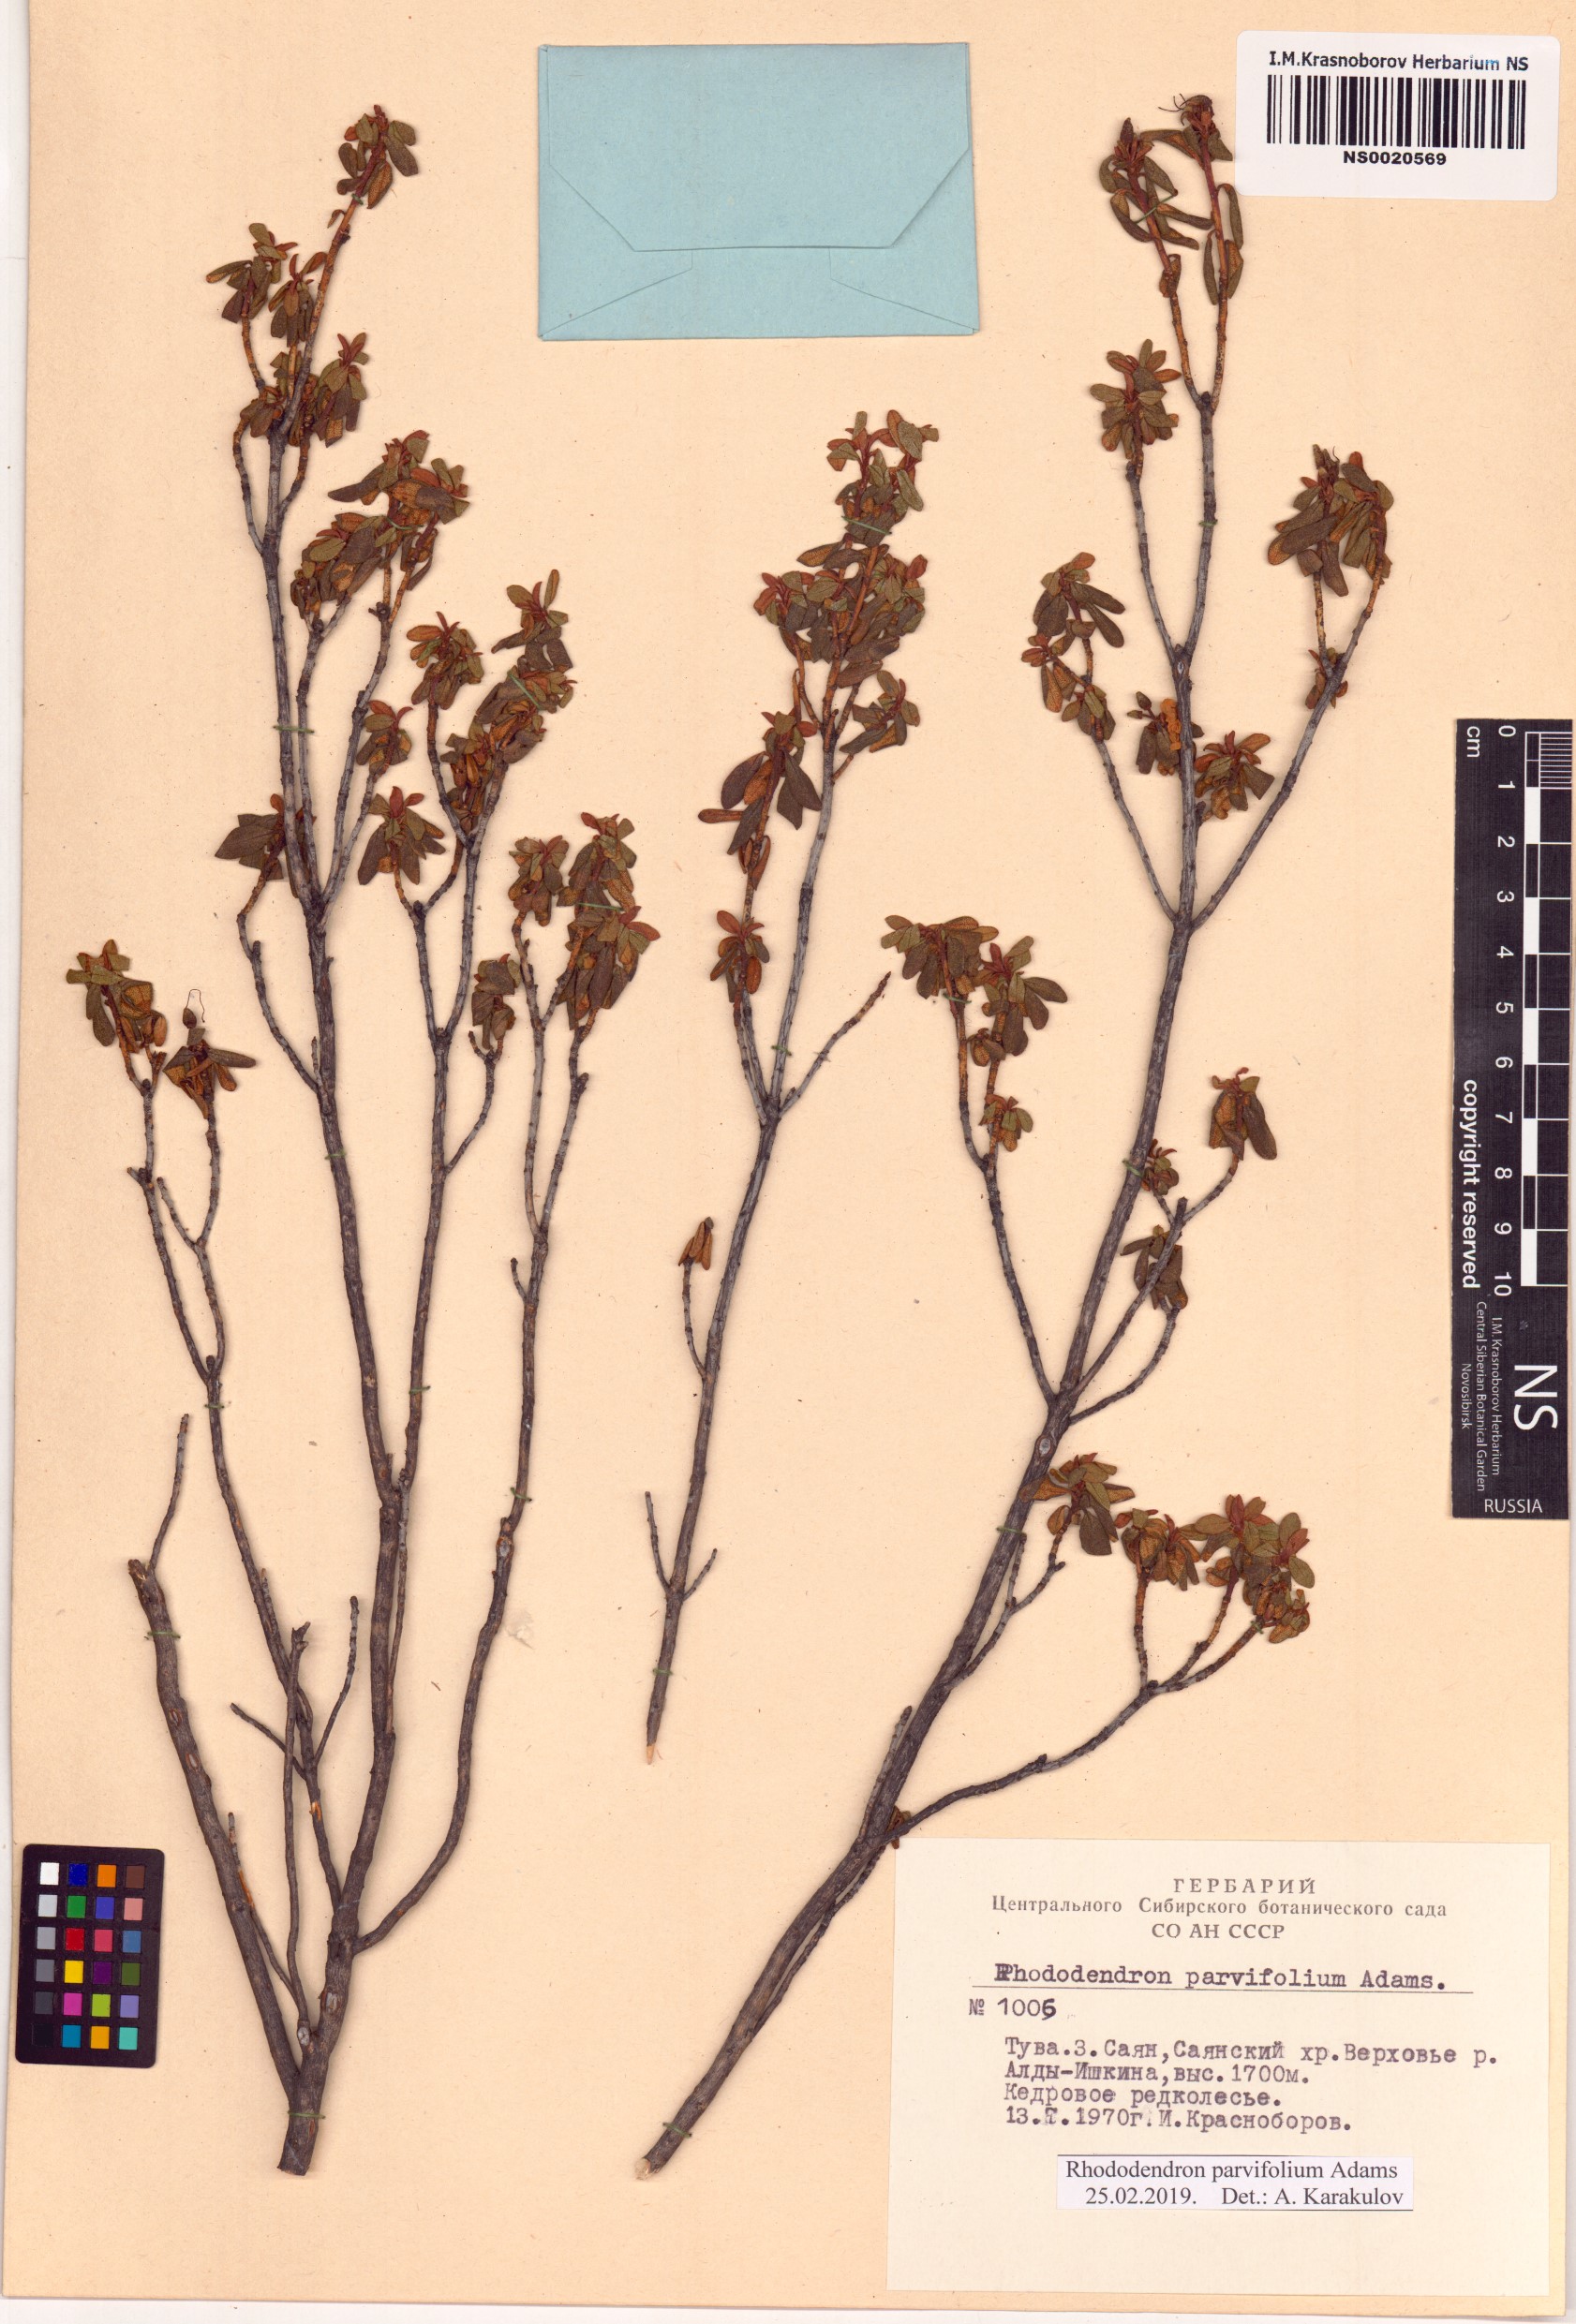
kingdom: Plantae
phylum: Tracheophyta
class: Magnoliopsida
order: Ericales
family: Ericaceae
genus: Rhododendron
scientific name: Rhododendron parvifolium
